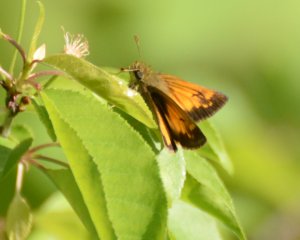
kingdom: Animalia
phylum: Arthropoda
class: Insecta
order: Lepidoptera
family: Hesperiidae
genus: Lon
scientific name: Lon hobomok
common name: Hobomok Skipper
